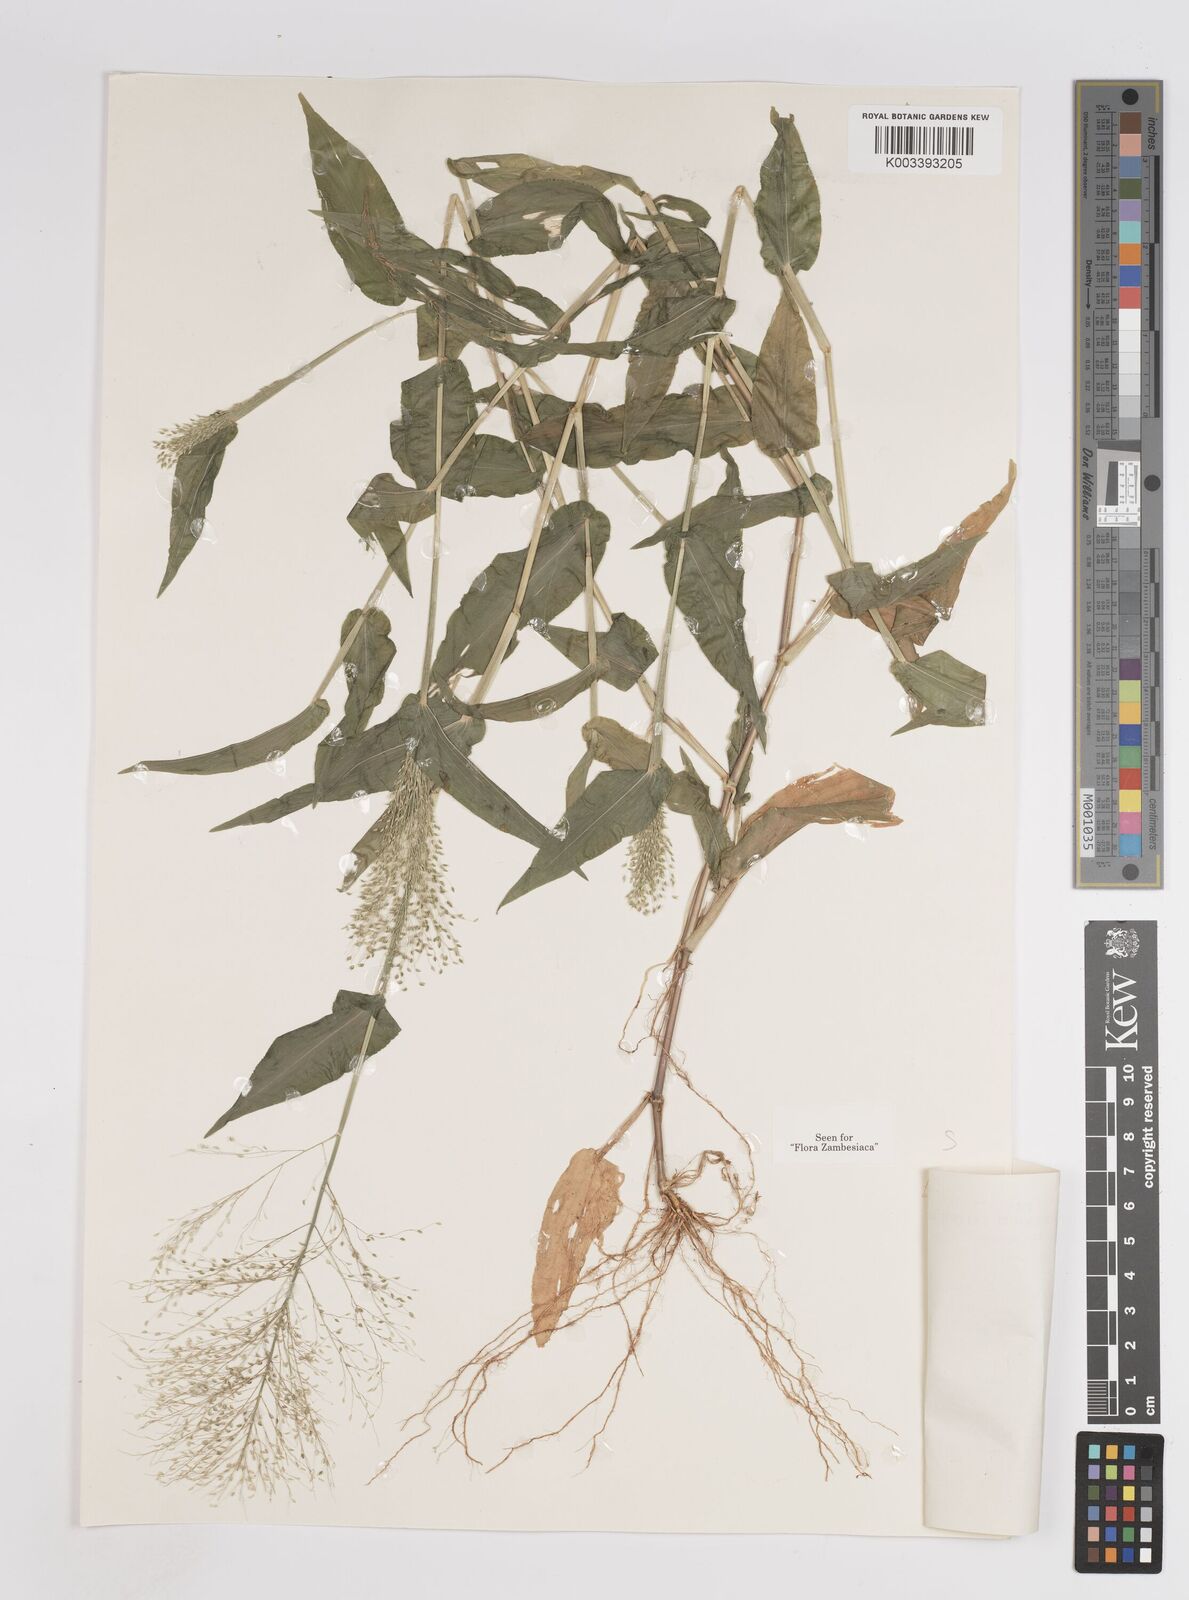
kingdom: Plantae
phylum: Tracheophyta
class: Liliopsida
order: Poales
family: Poaceae
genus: Panicum
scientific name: Panicum hirtum
